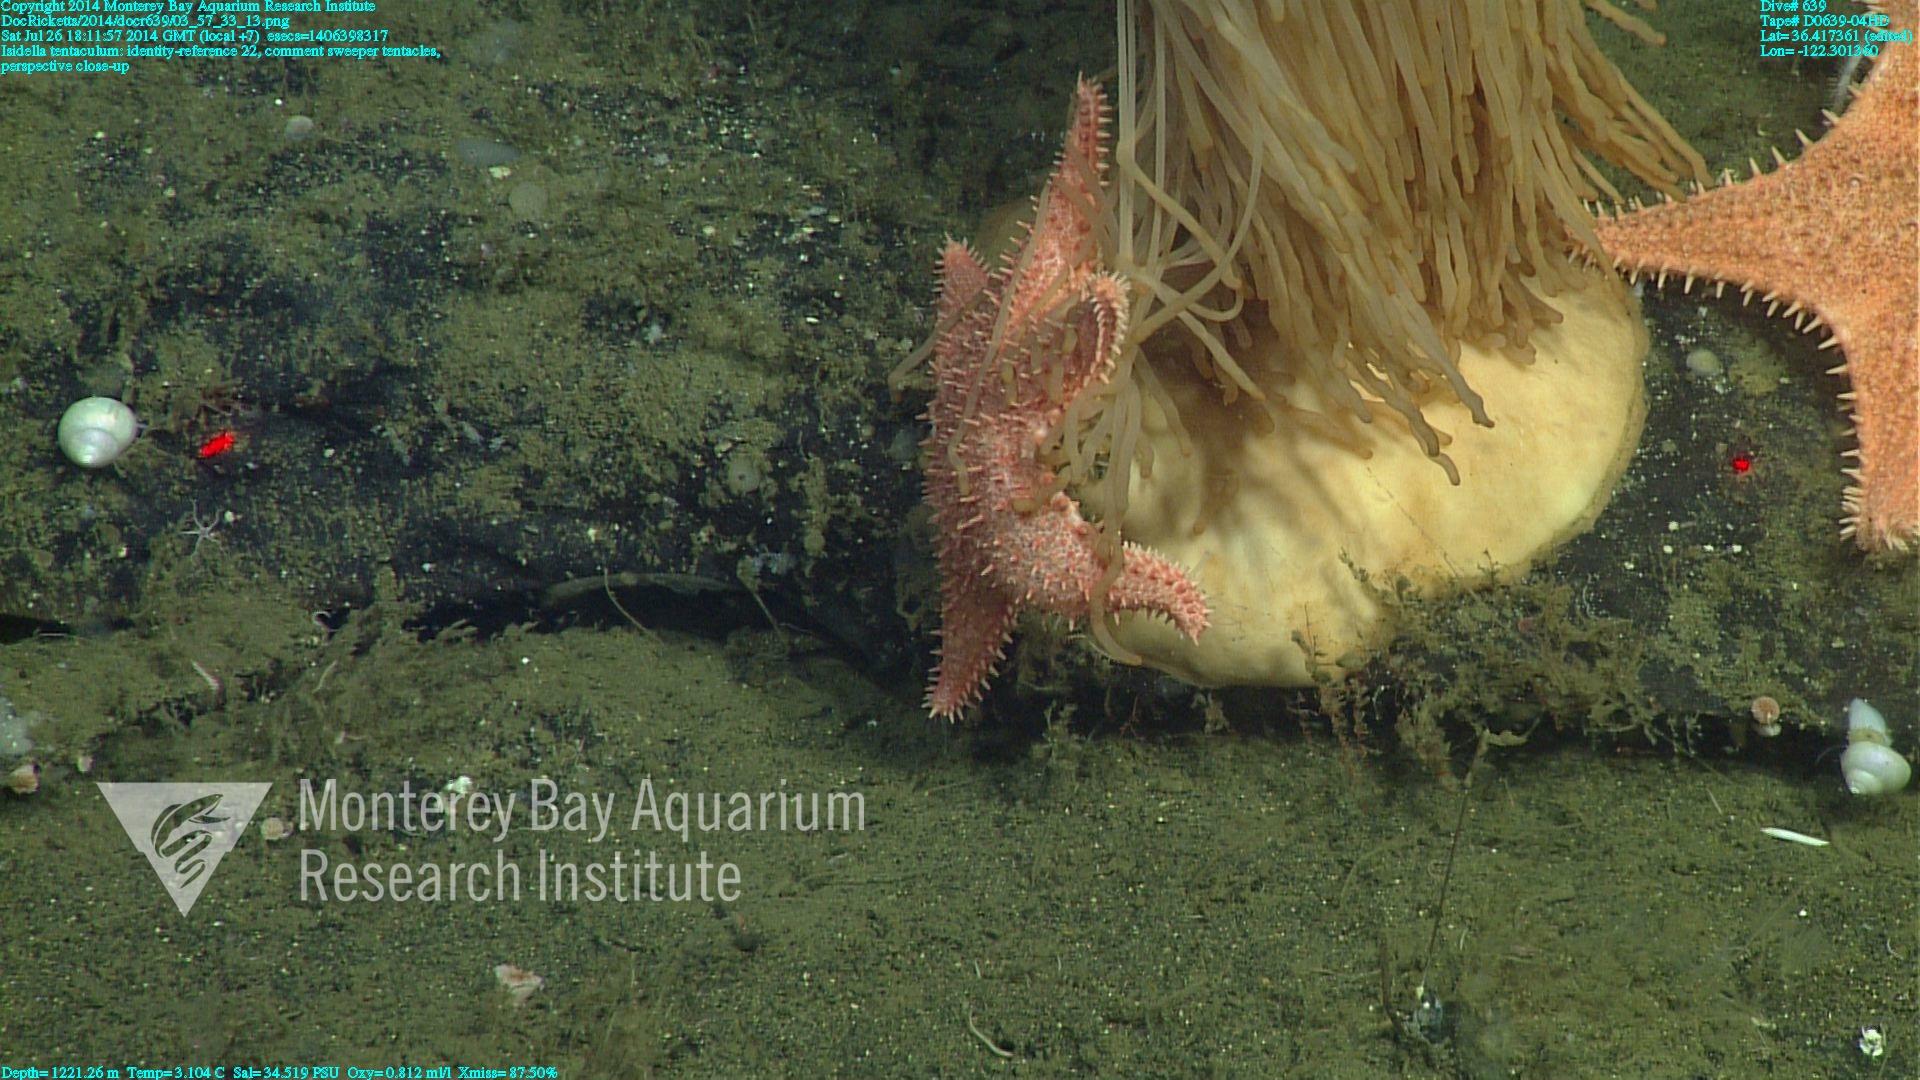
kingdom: Animalia
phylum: Cnidaria
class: Anthozoa
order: Scleralcyonacea
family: Keratoisididae
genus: Isidella
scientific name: Isidella tentaculum
